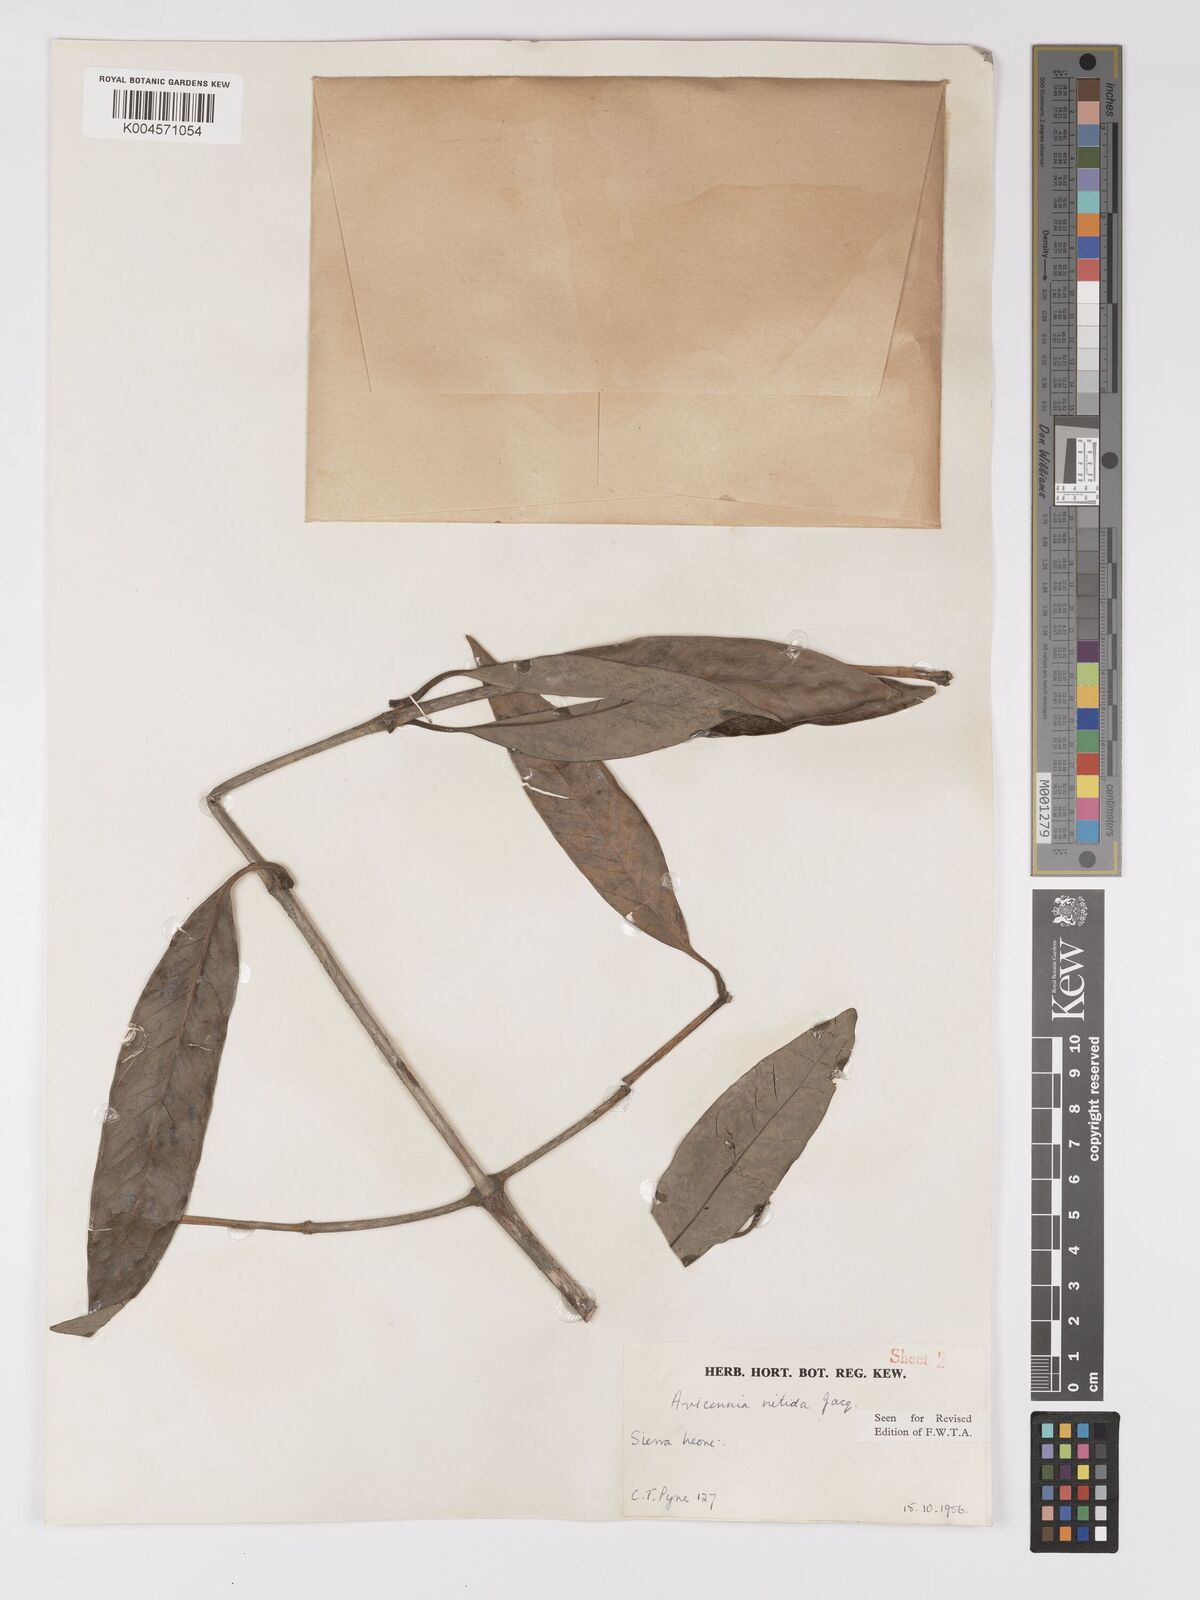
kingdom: Plantae
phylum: Tracheophyta
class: Magnoliopsida
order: Lamiales
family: Acanthaceae
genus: Avicennia
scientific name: Avicennia germinans
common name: Black mangrove
